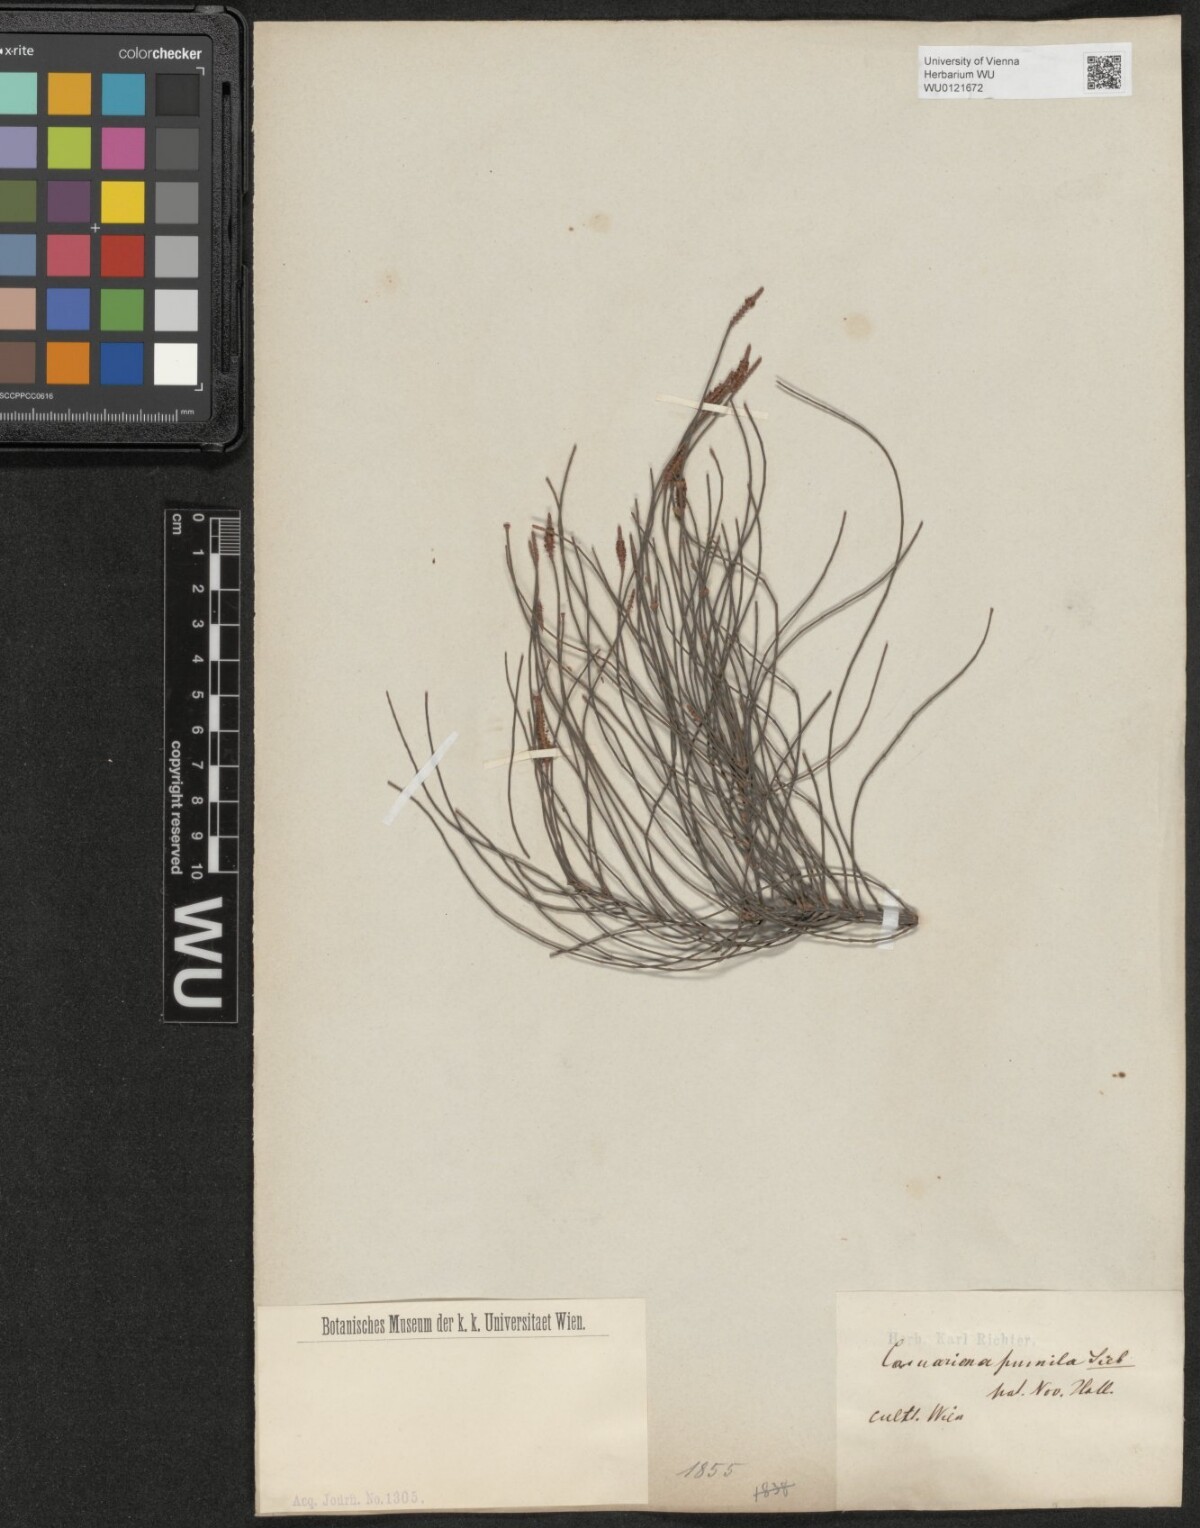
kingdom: Plantae
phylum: Tracheophyta
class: Magnoliopsida
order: Fagales
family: Casuarinaceae
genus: Allocasuarina
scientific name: Allocasuarina paludosa
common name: Scrub she-oak
